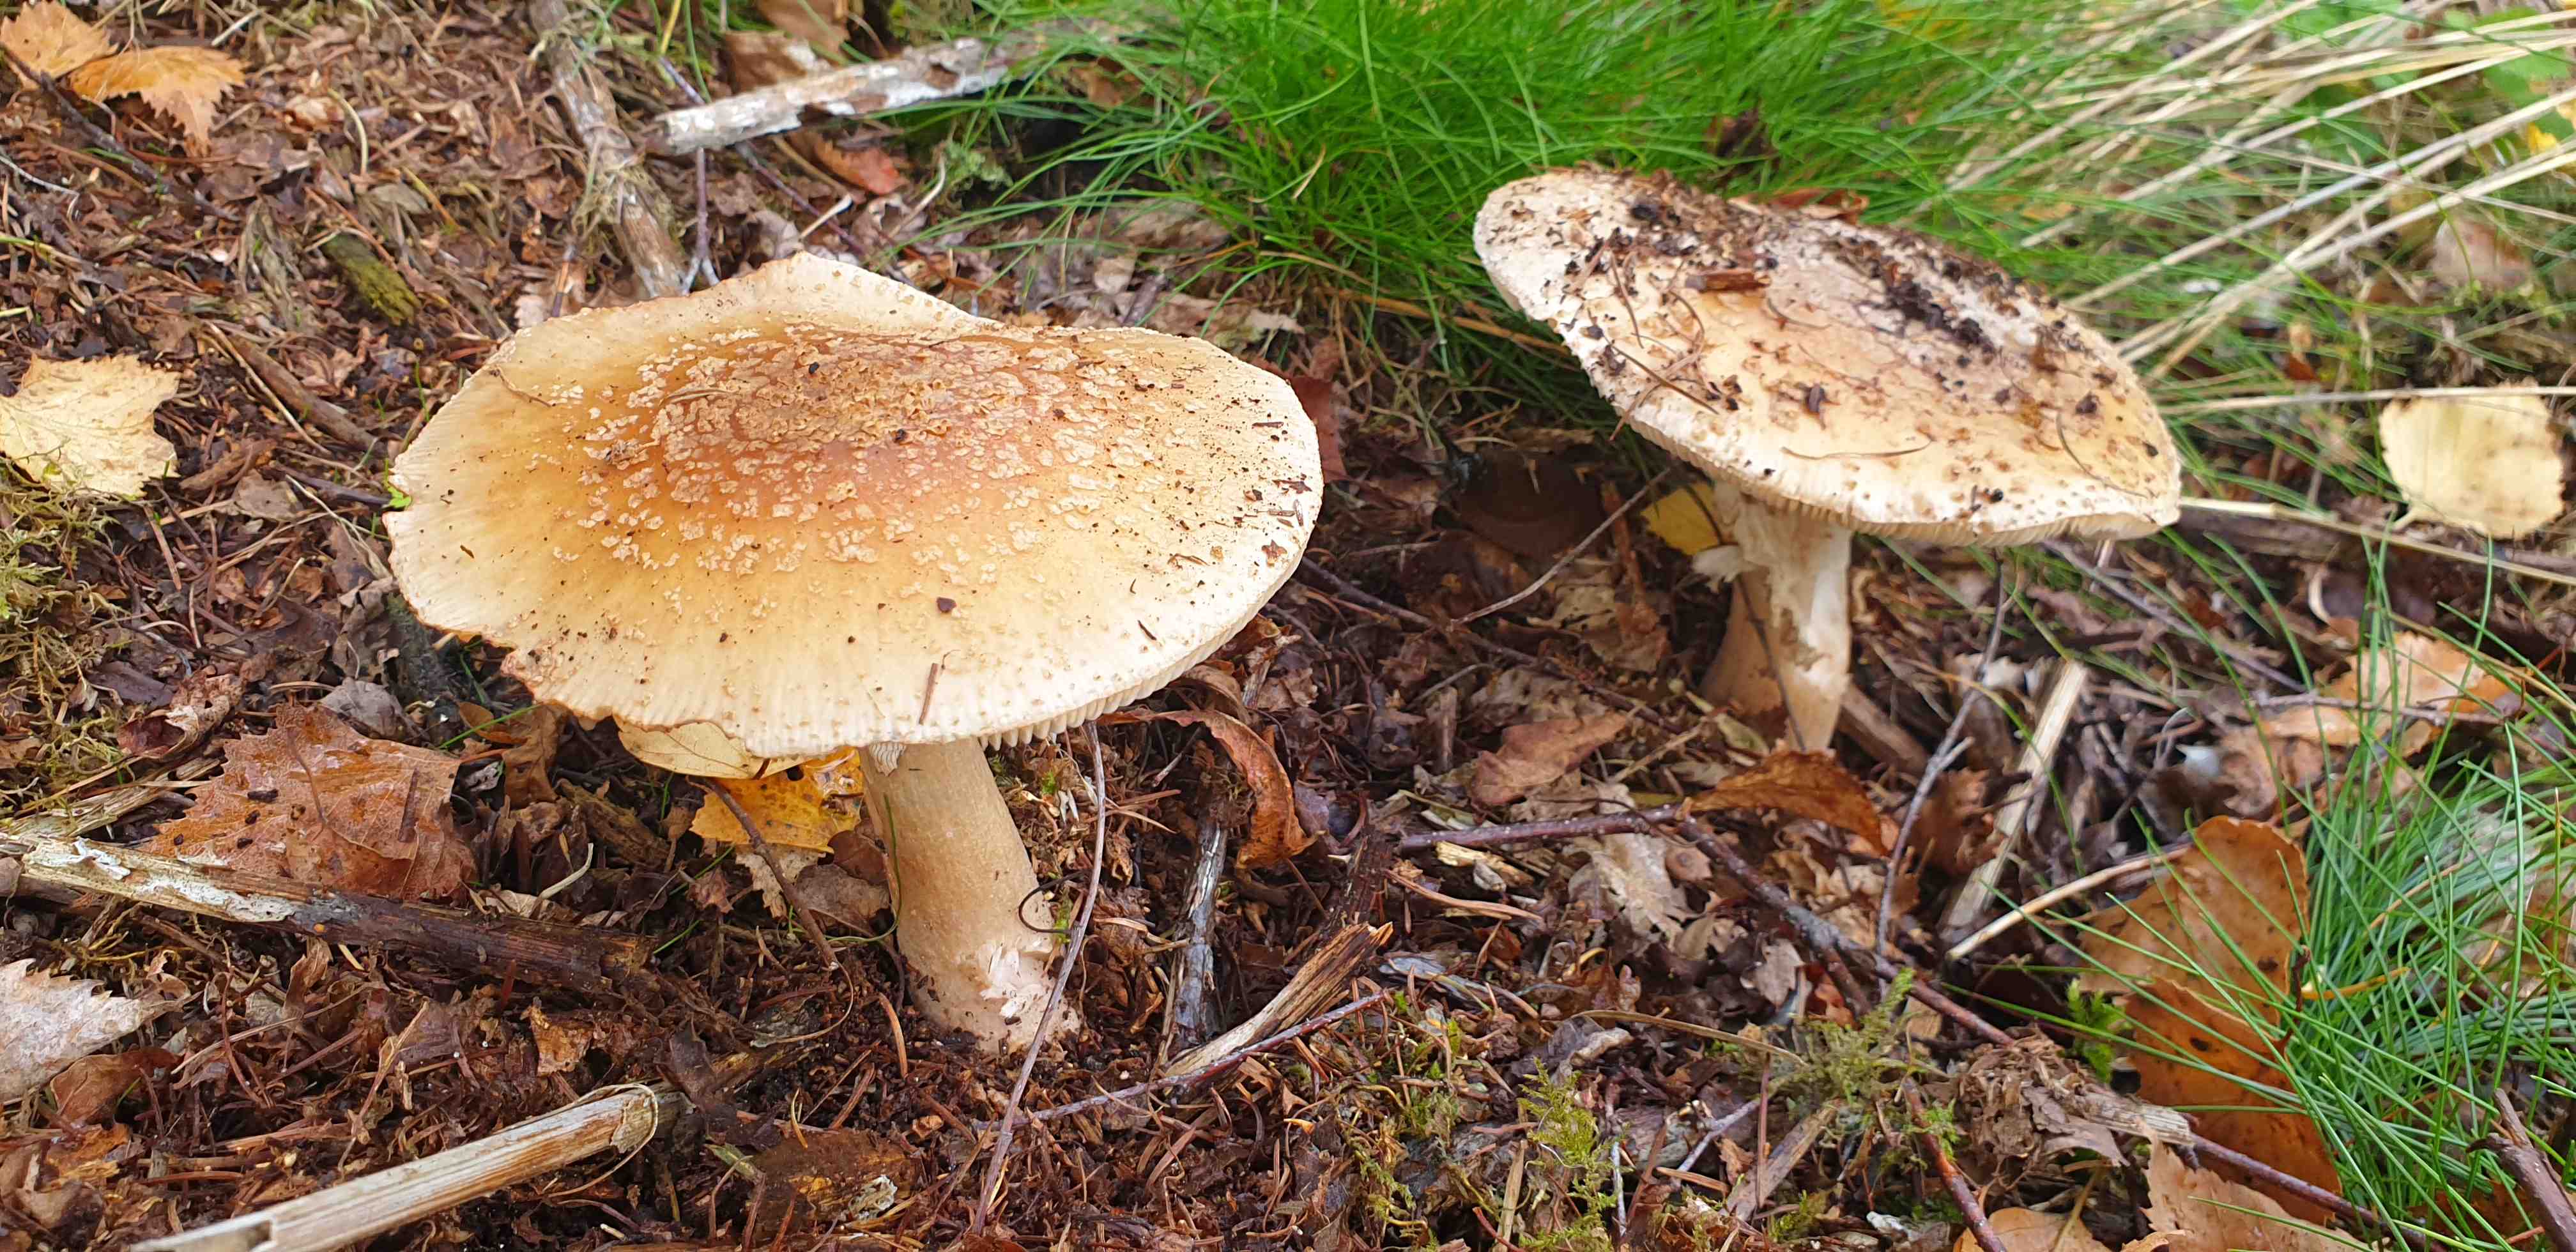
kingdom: Fungi
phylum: Basidiomycota
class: Agaricomycetes
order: Agaricales
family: Amanitaceae
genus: Amanita
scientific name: Amanita rubescens
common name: rødmende fluesvamp
